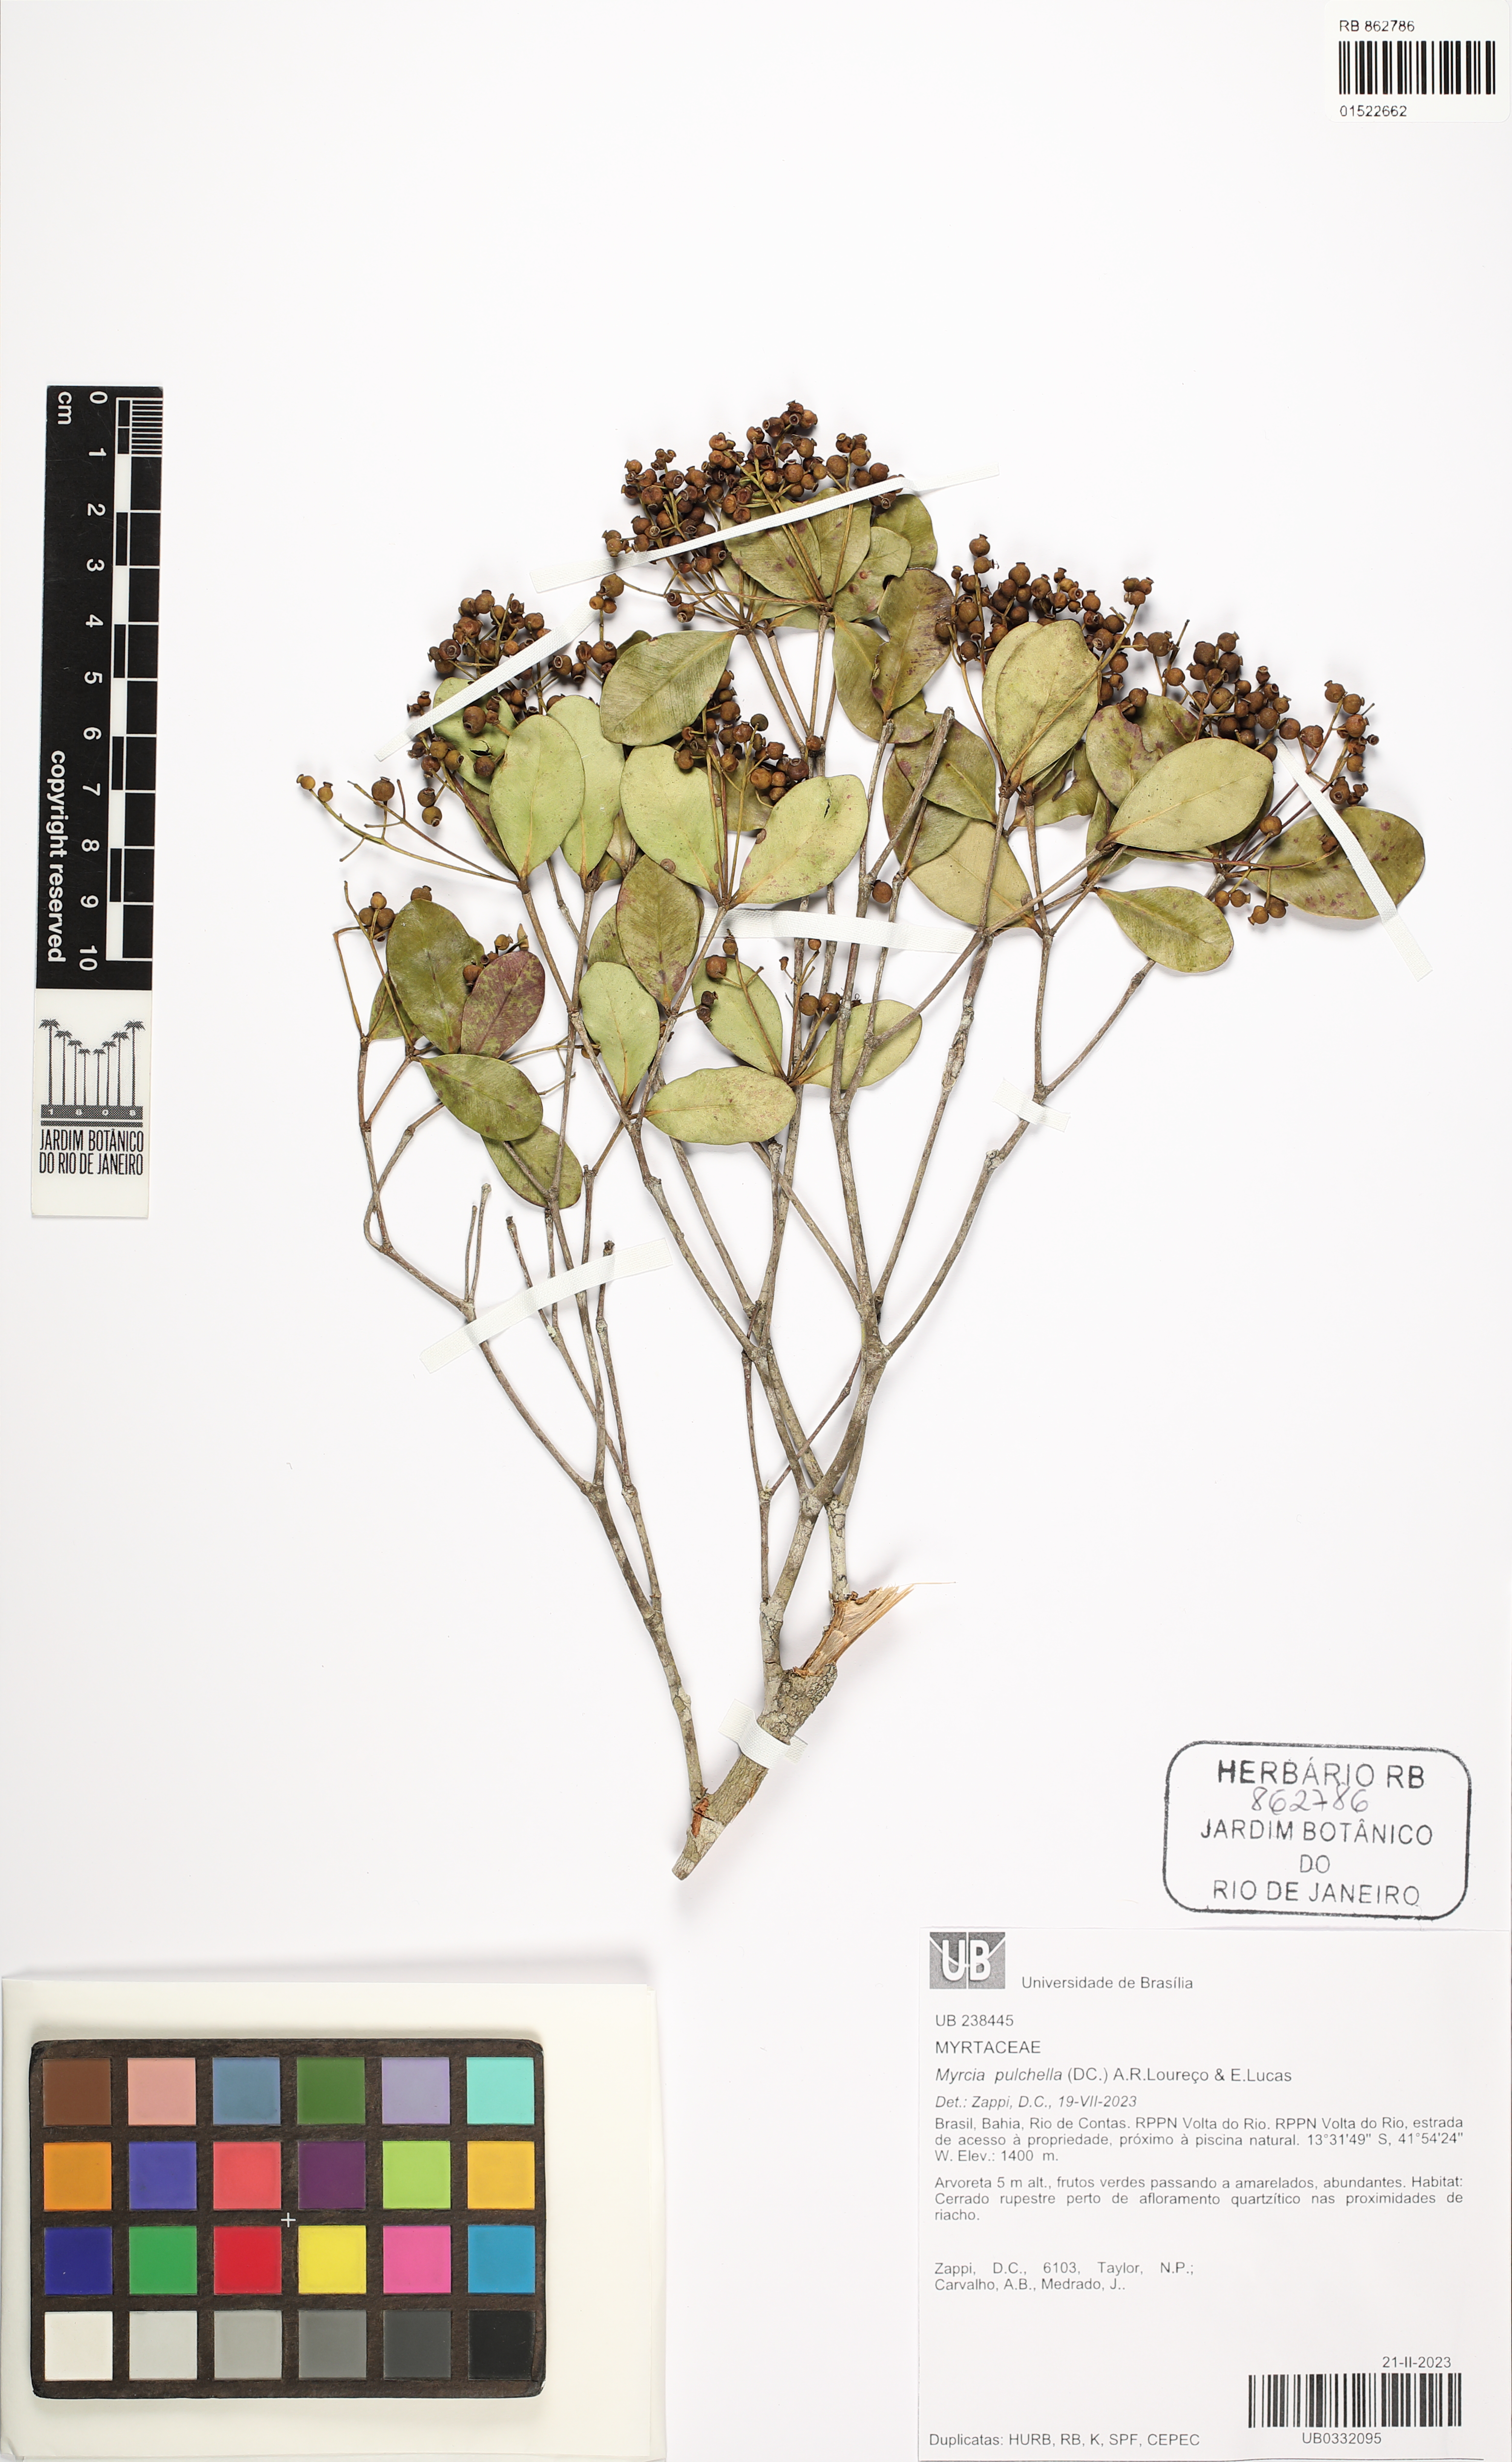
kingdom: Plantae
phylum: Tracheophyta
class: Magnoliopsida
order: Myrtales
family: Myrtaceae
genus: Myrcia
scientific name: Myrcia pulchella
